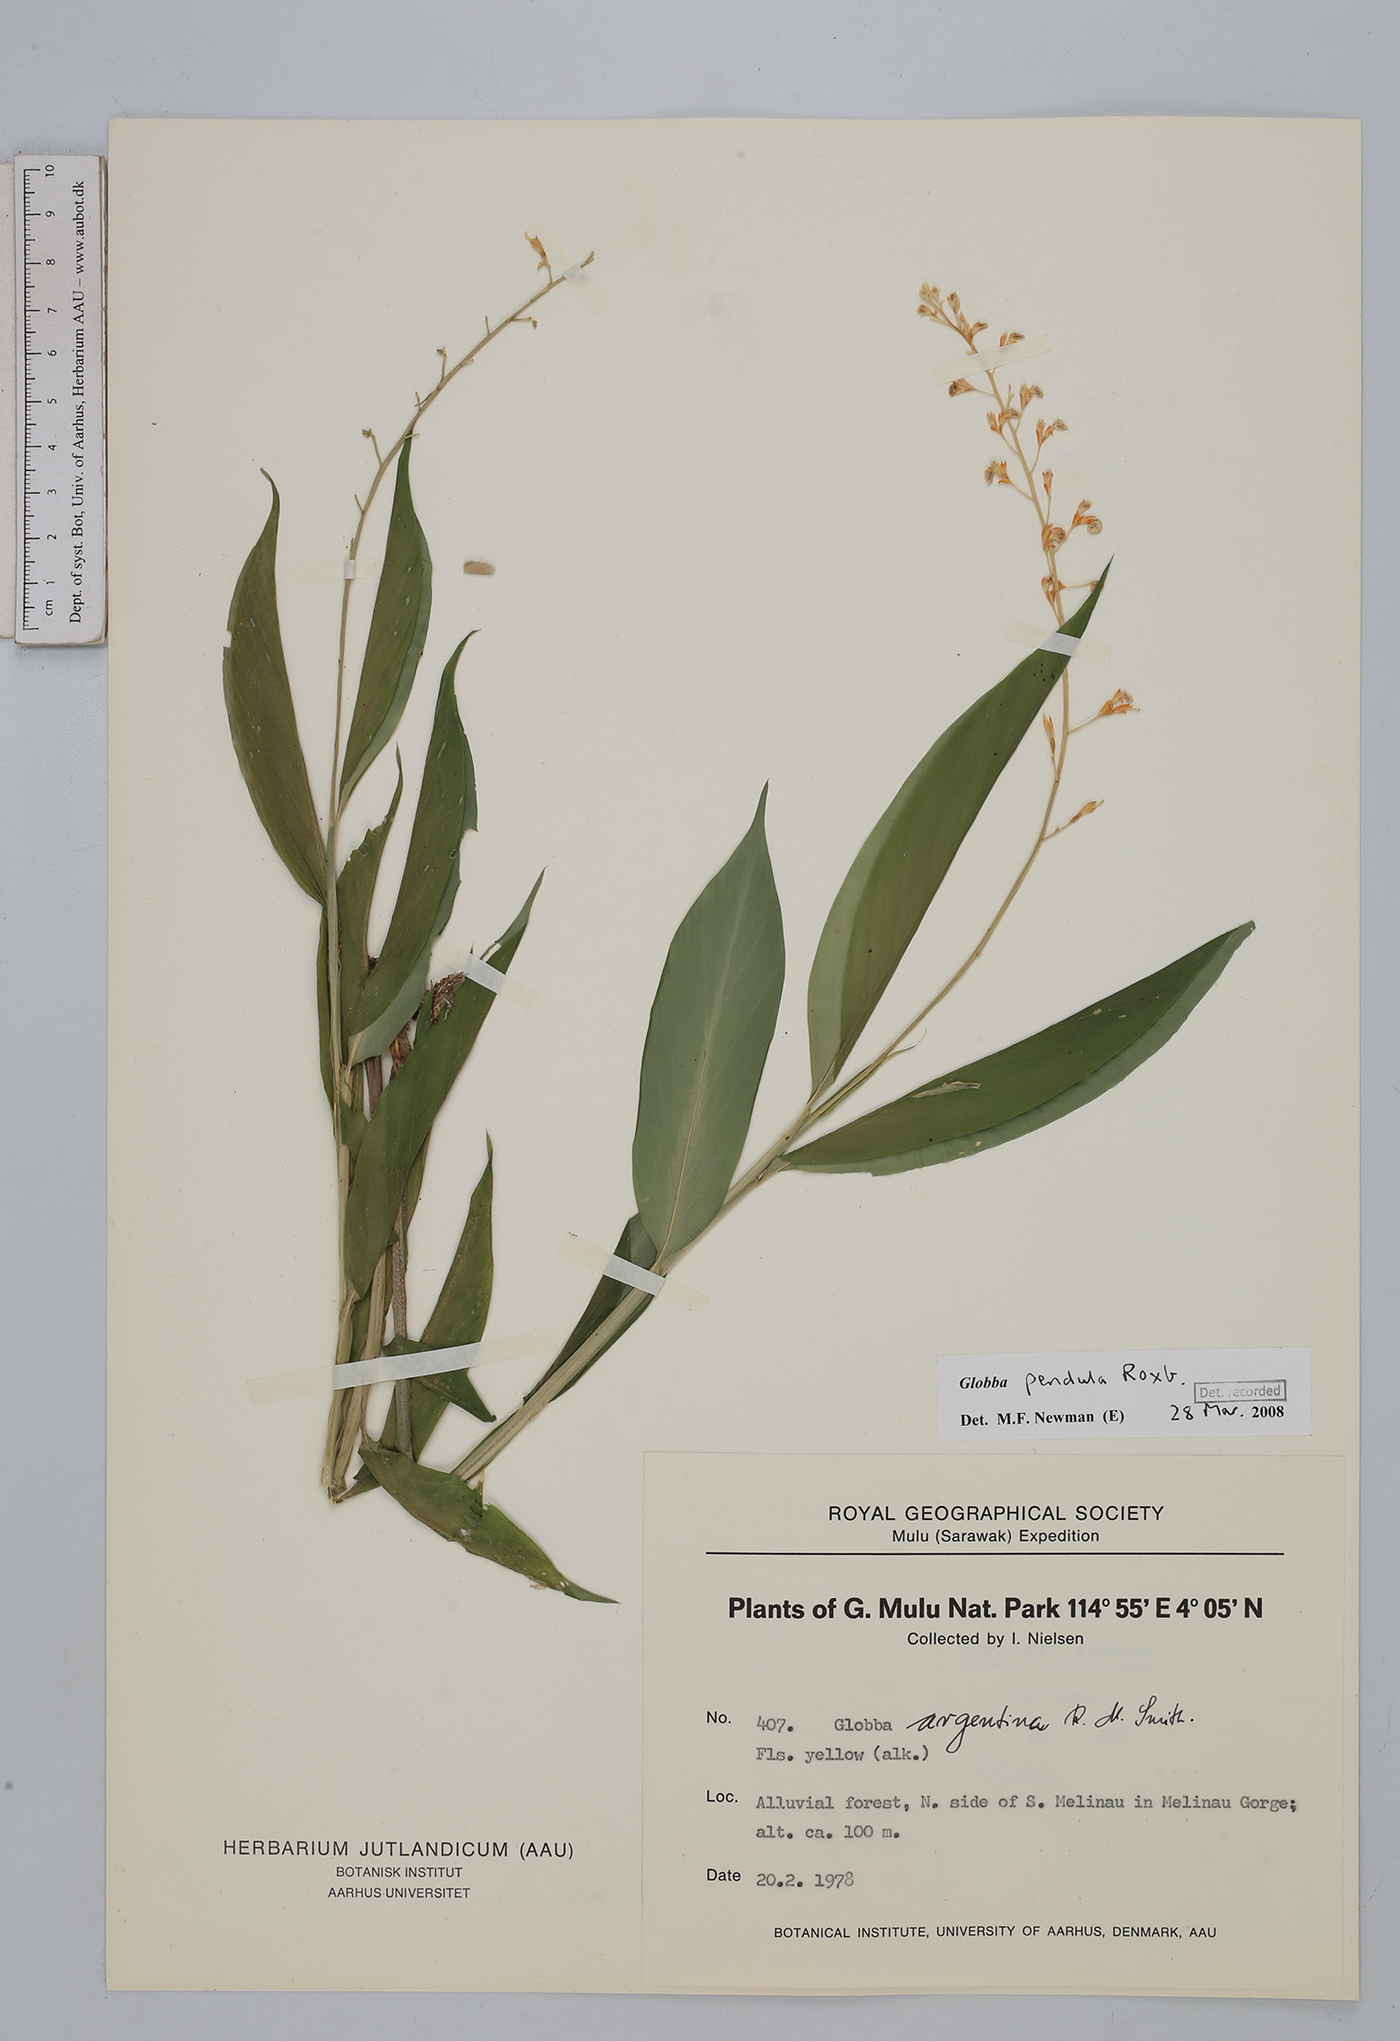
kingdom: Plantae
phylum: Tracheophyta
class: Liliopsida
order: Zingiberales
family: Zingiberaceae
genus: Globba
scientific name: Globba pendula
